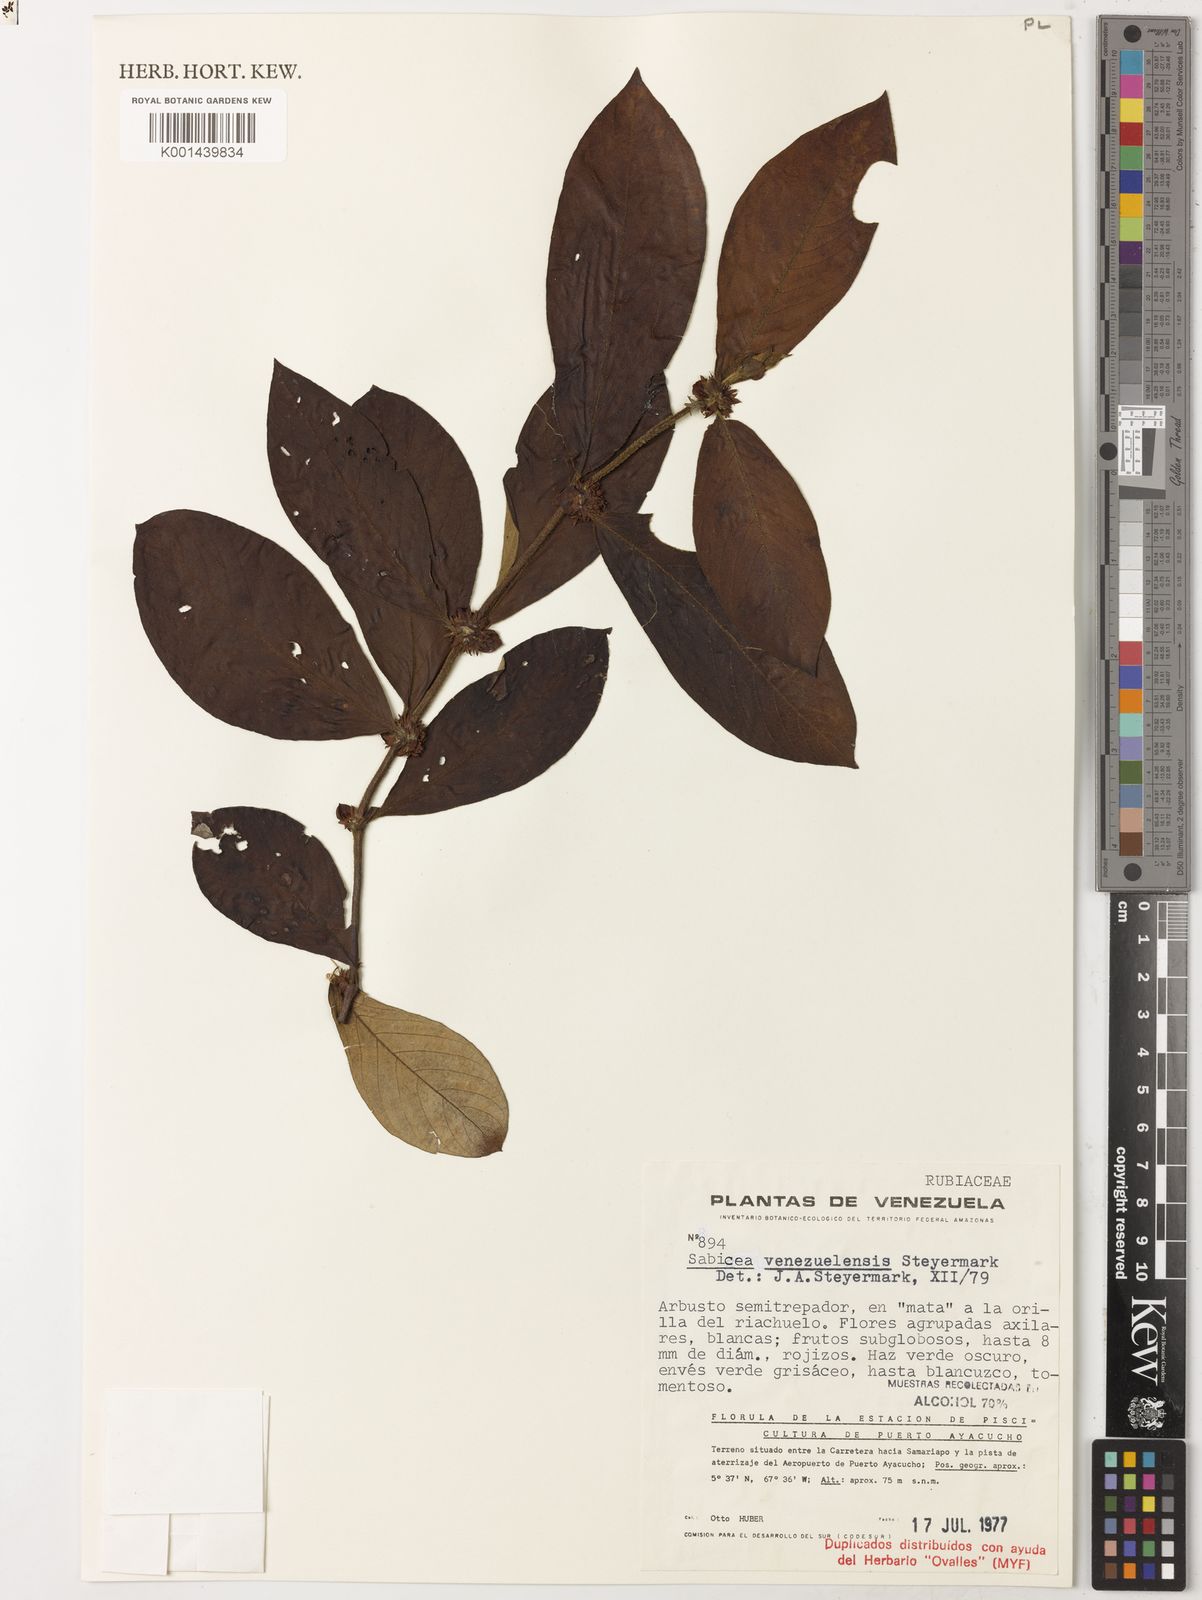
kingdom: Plantae
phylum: Tracheophyta
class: Magnoliopsida
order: Gentianales
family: Rubiaceae
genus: Sabicea
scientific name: Sabicea venezuelensis
